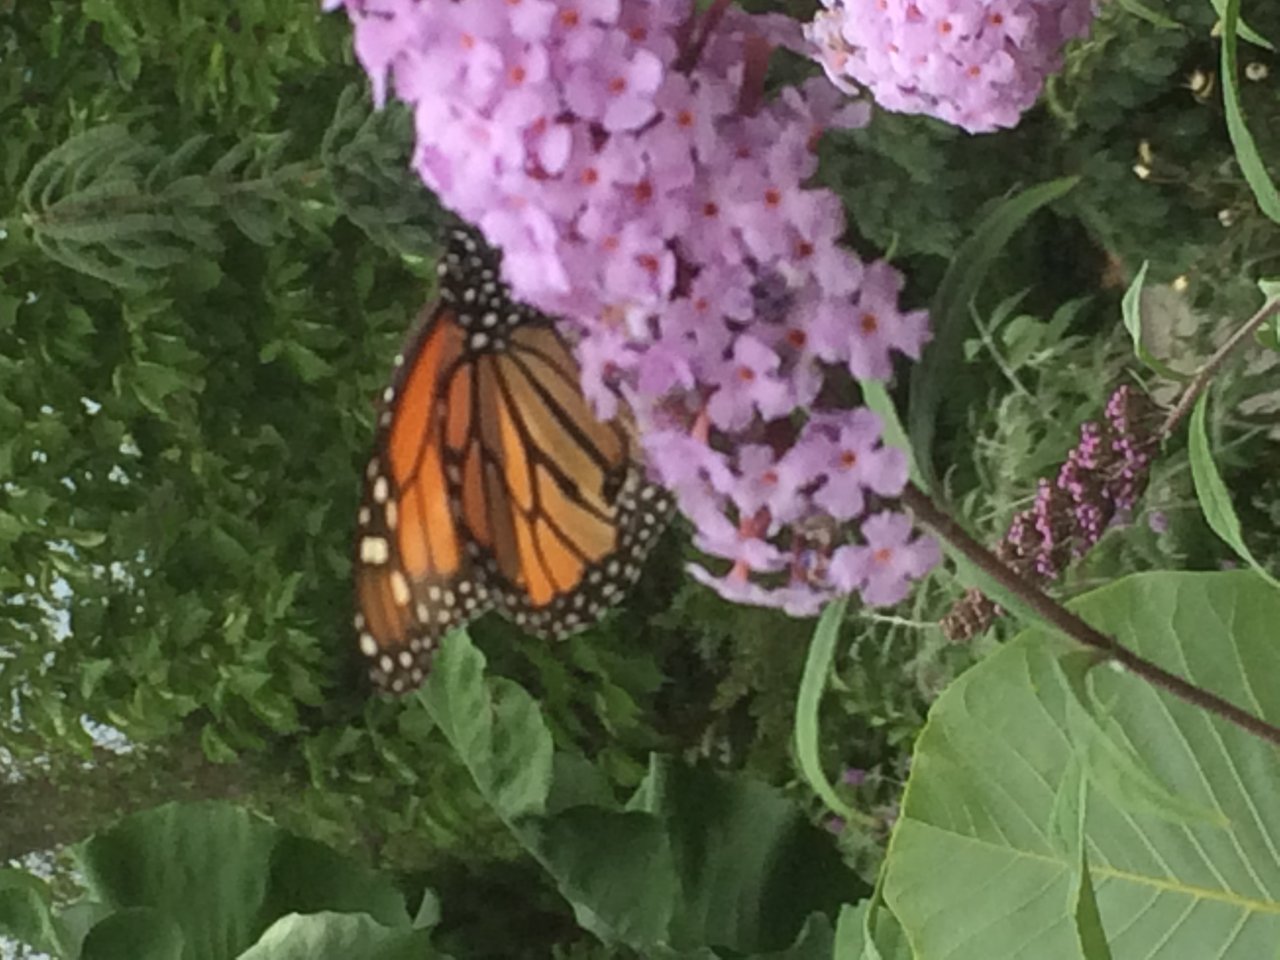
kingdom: Animalia
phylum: Arthropoda
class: Insecta
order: Lepidoptera
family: Nymphalidae
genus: Danaus
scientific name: Danaus plexippus
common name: Monarch
